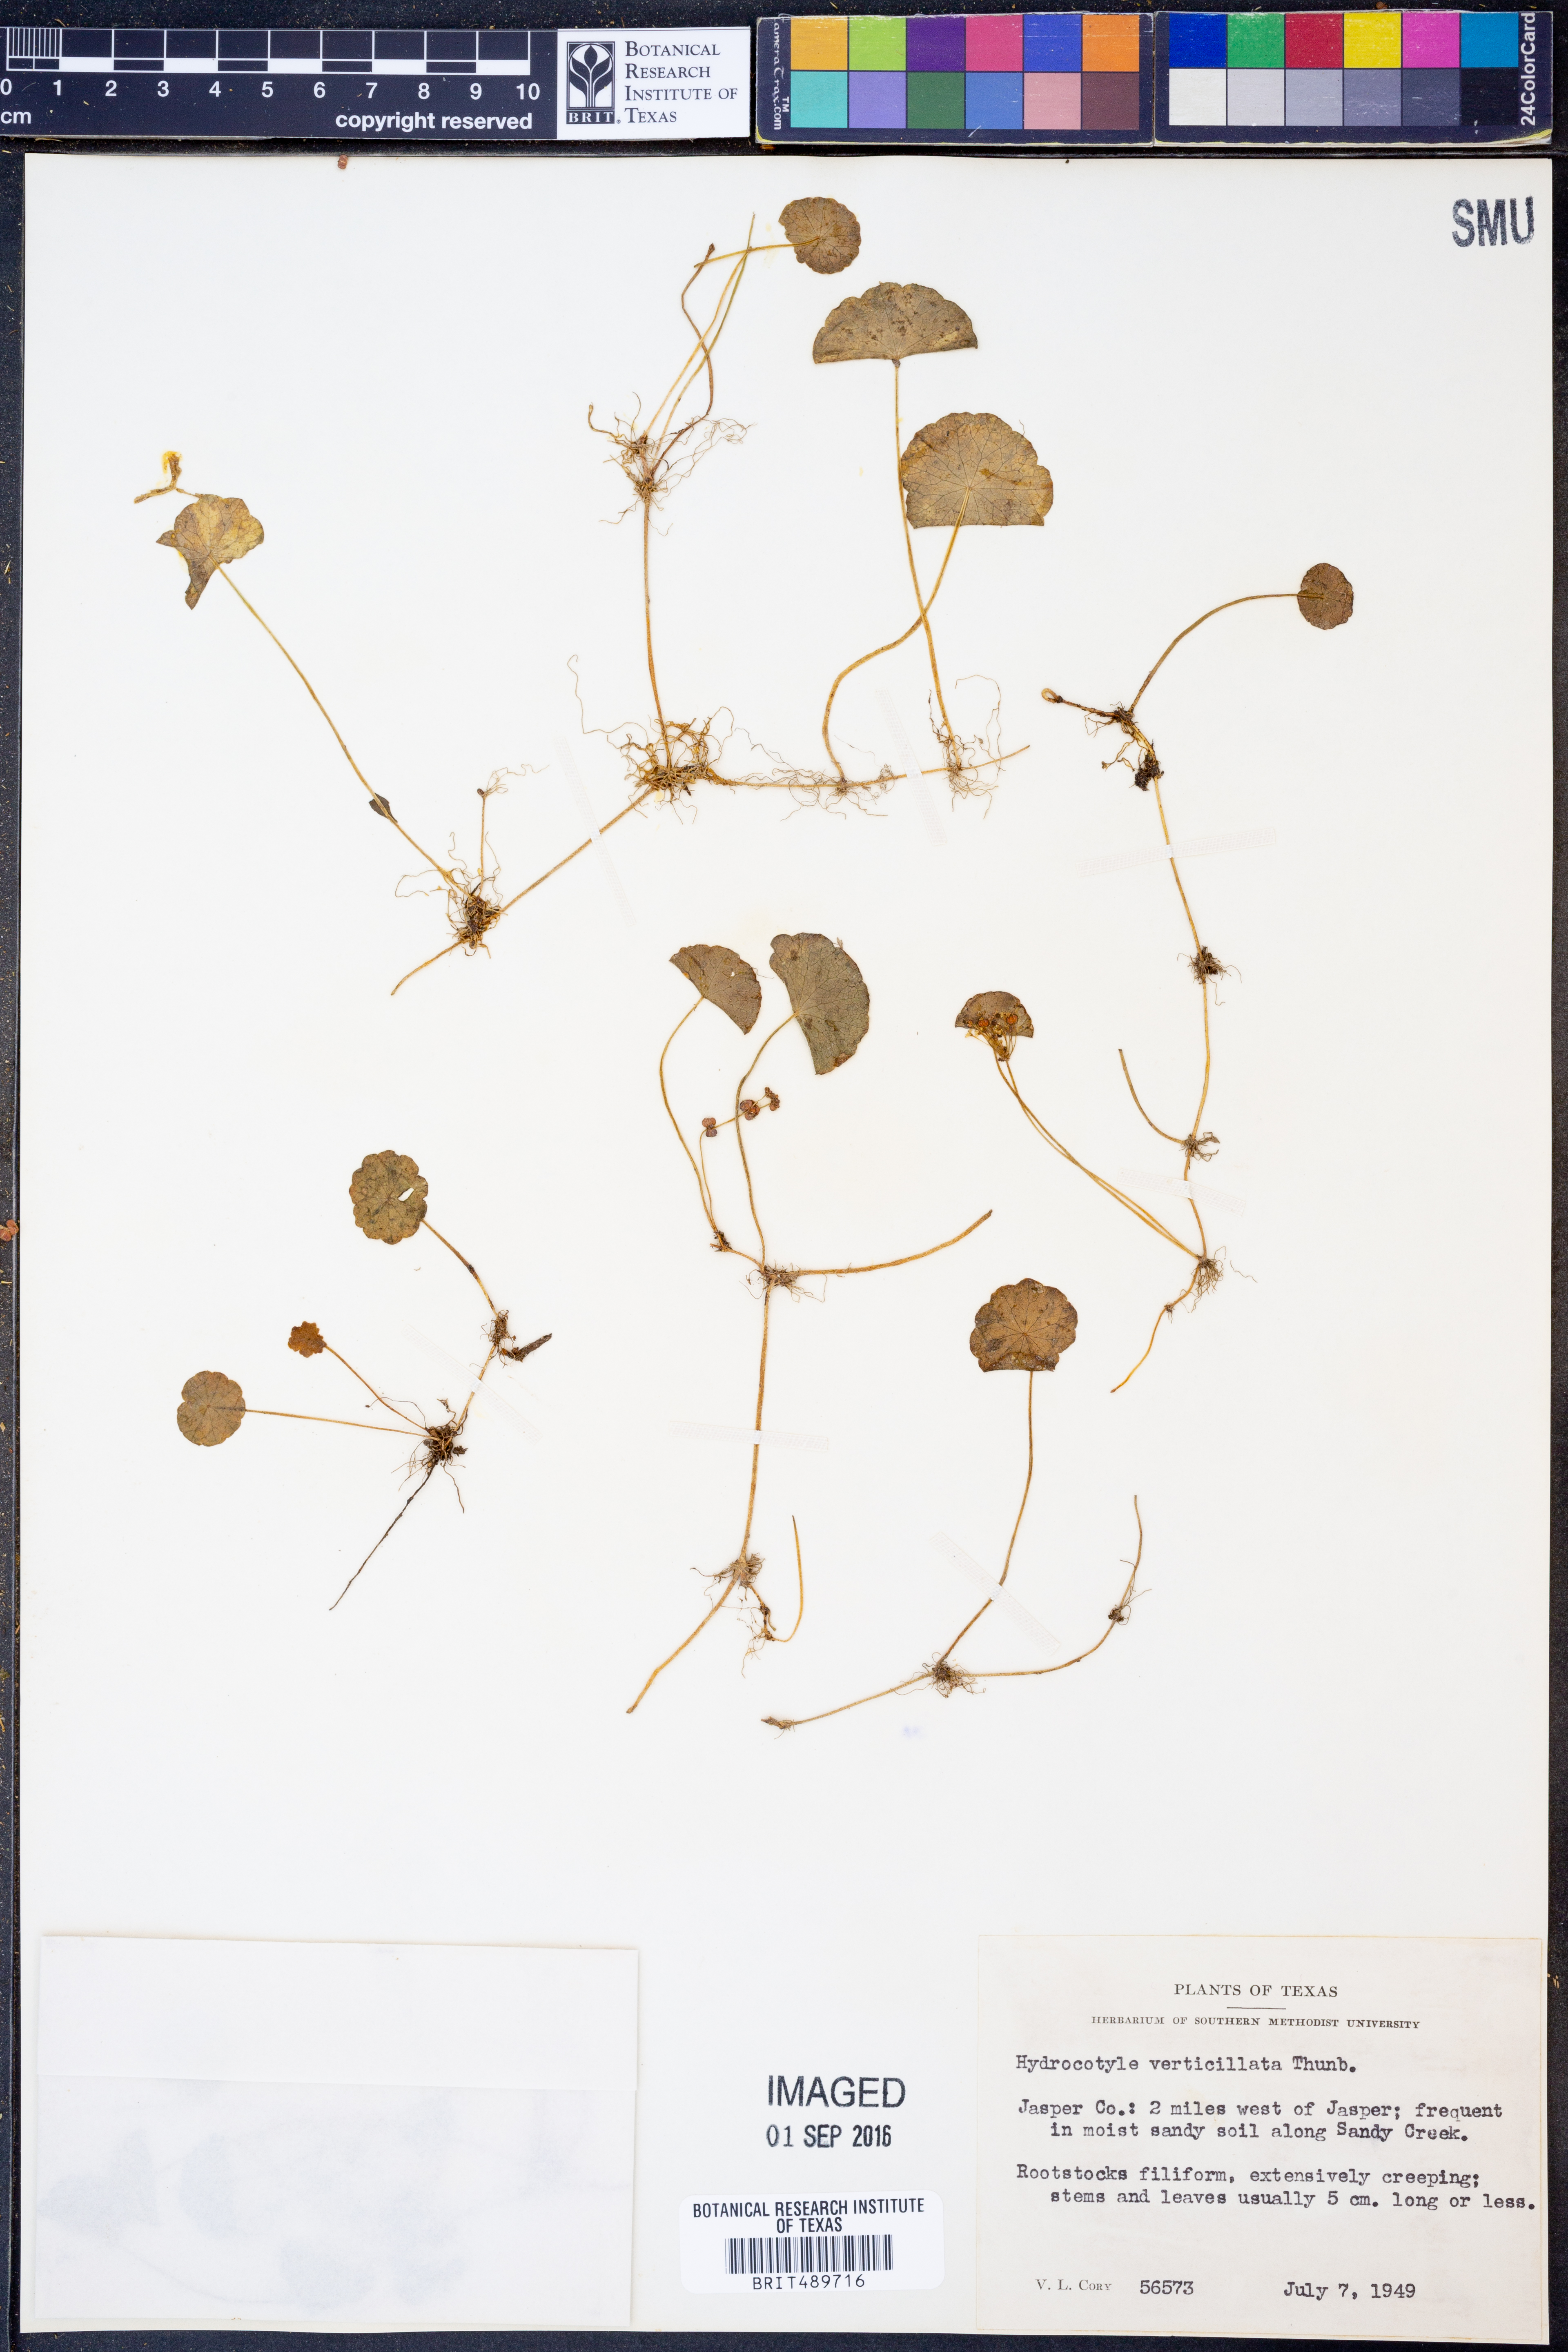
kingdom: Plantae
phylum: Tracheophyta
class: Magnoliopsida
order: Apiales
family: Araliaceae
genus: Hydrocotyle
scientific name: Hydrocotyle verticillata
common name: Whorled marshpennywort
